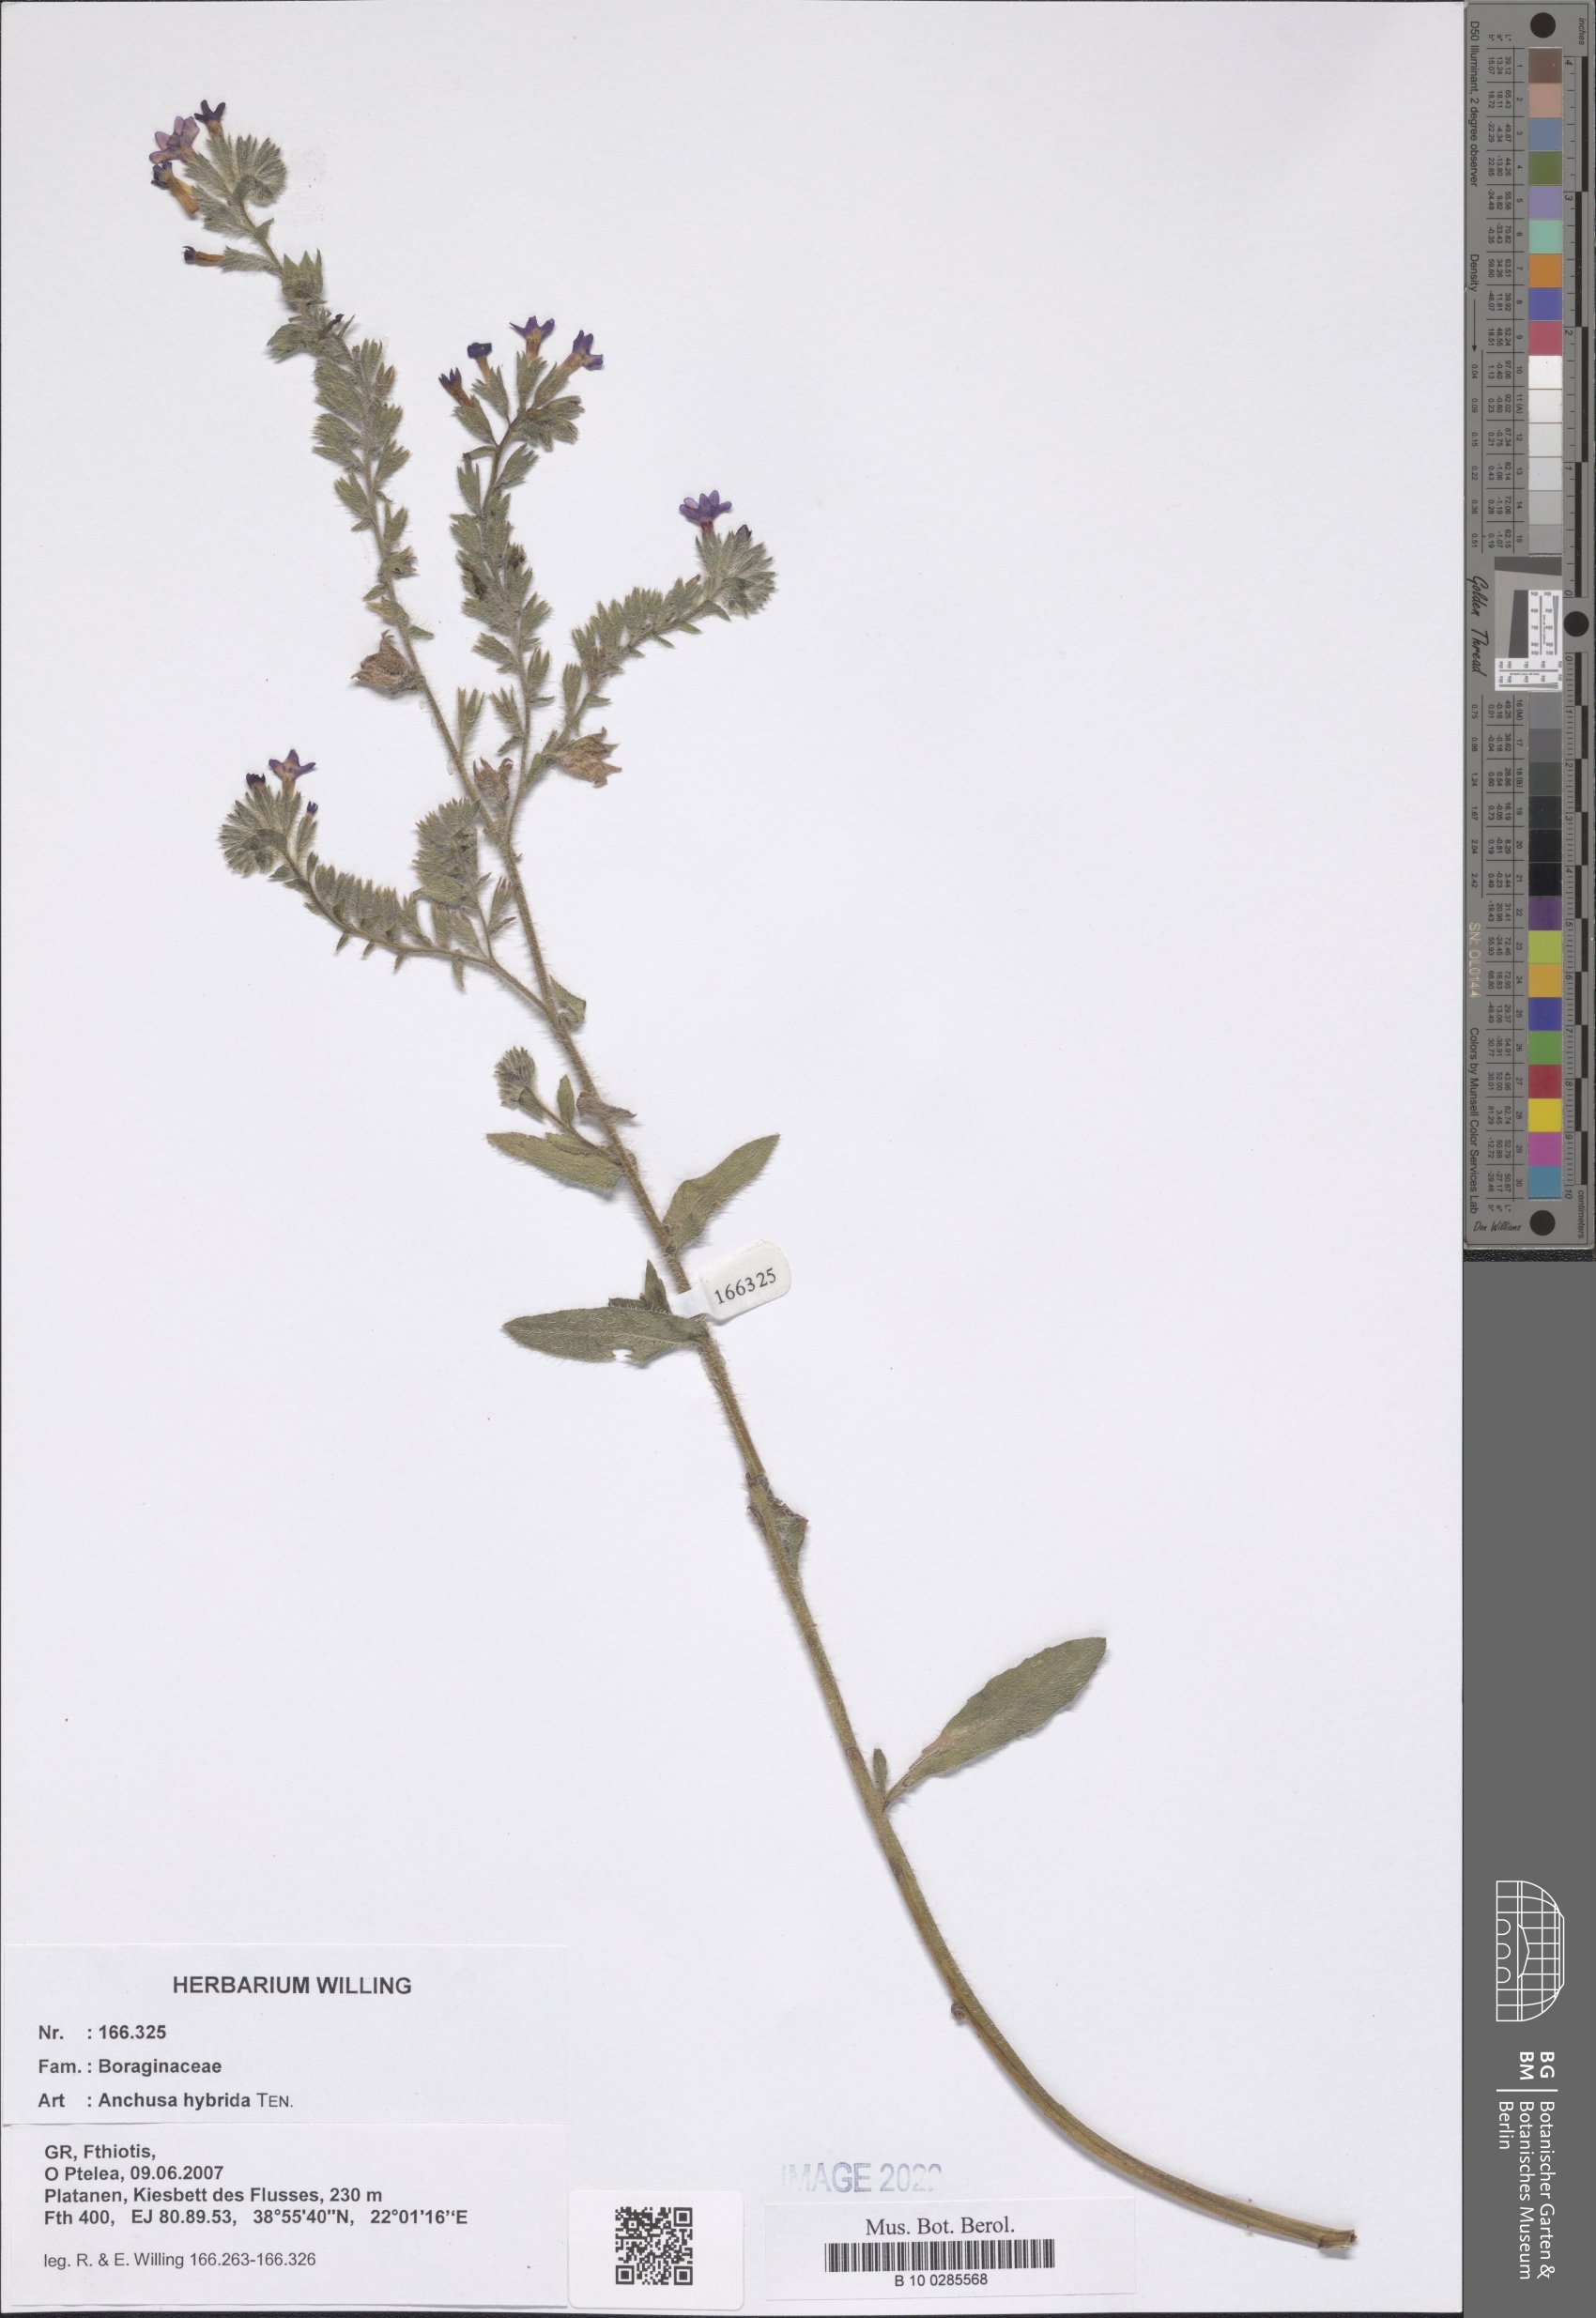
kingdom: Plantae
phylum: Tracheophyta
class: Magnoliopsida
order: Boraginales
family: Boraginaceae
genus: Anchusa
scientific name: Anchusa hybrida
